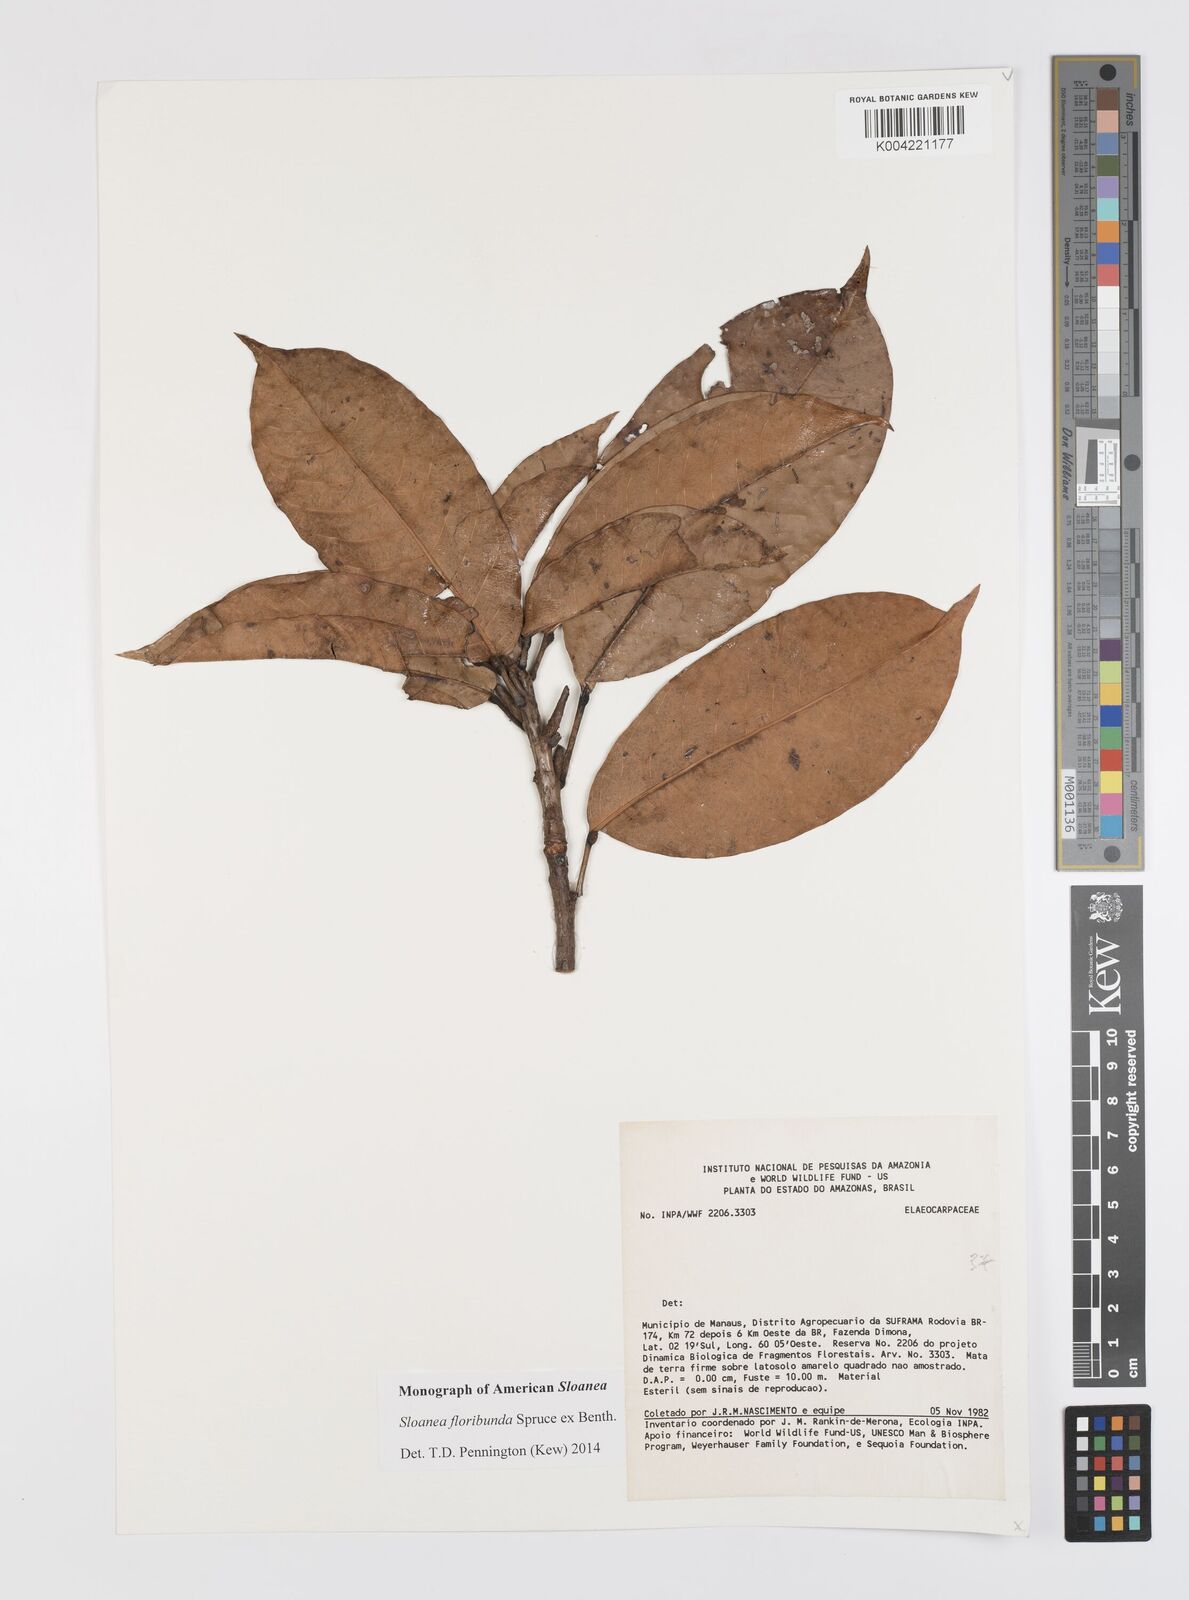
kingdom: Plantae
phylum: Tracheophyta
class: Magnoliopsida
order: Oxalidales
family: Elaeocarpaceae
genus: Sloanea
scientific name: Sloanea floribunda
